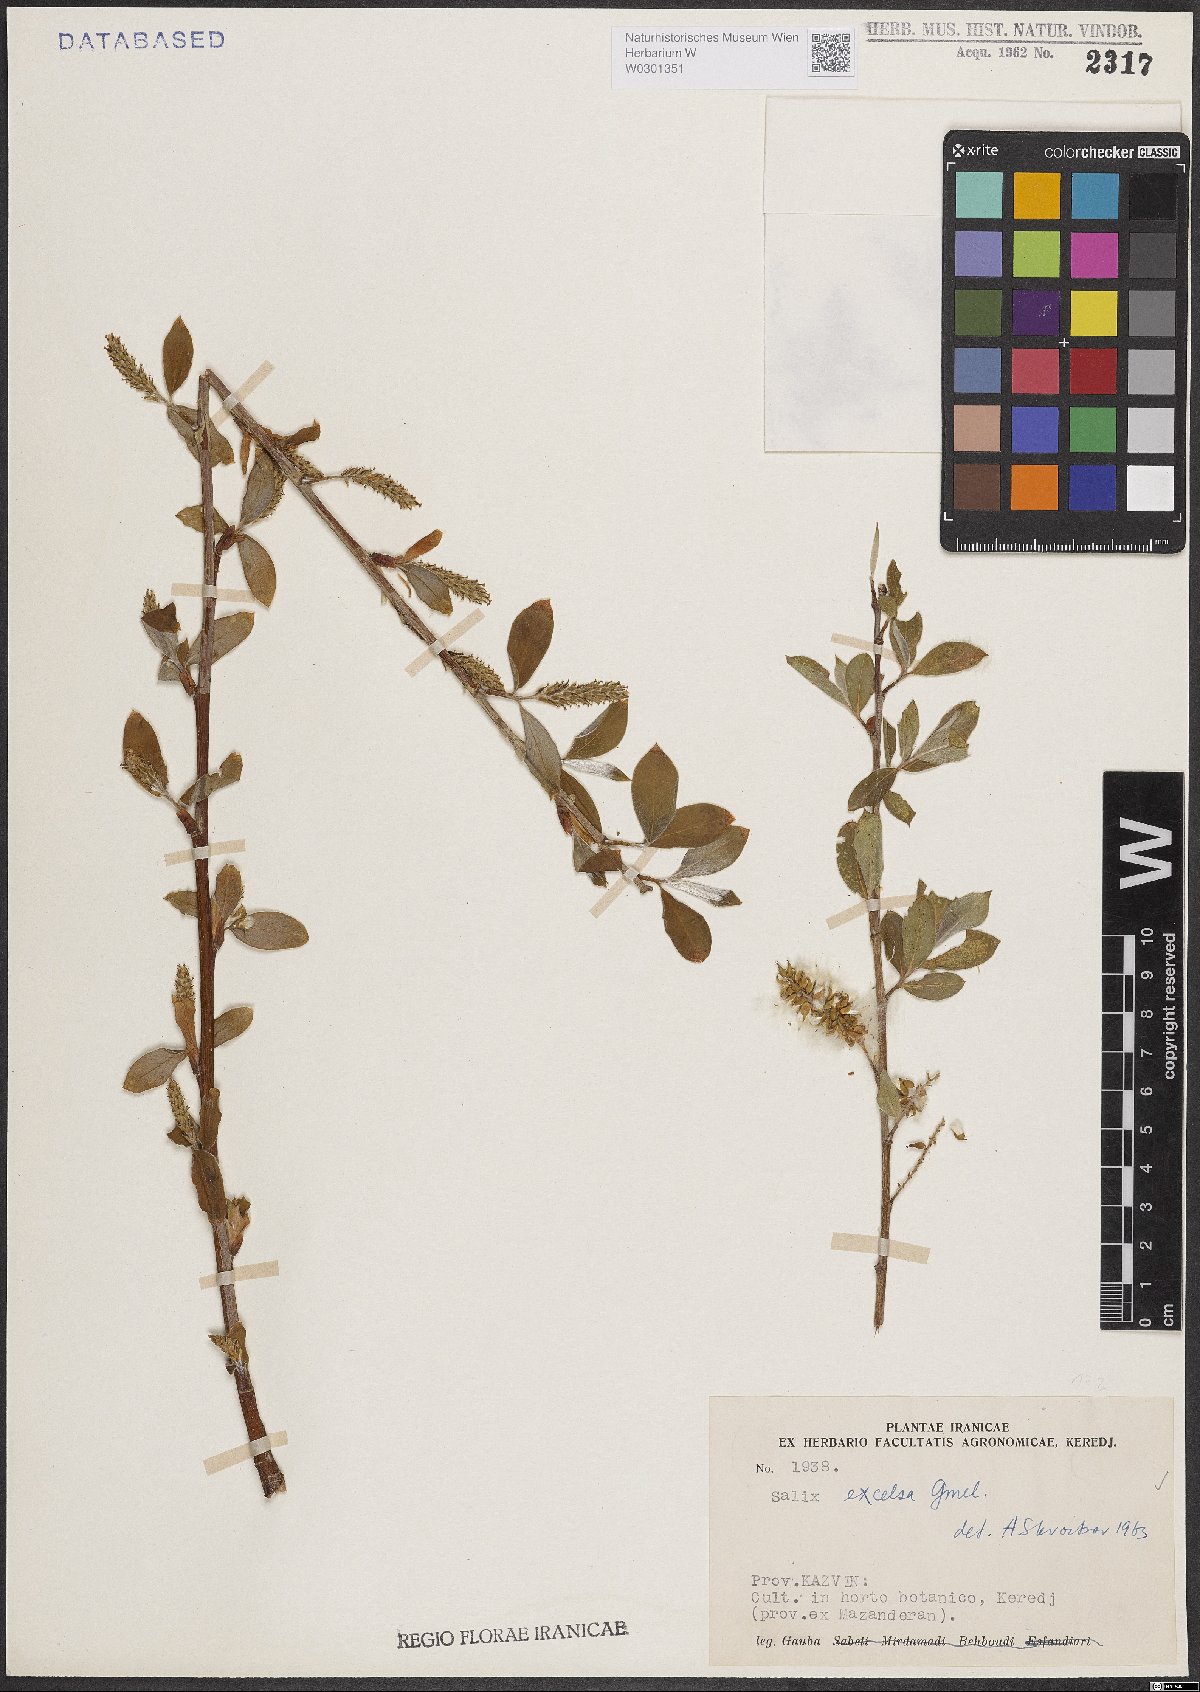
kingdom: Plantae
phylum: Tracheophyta
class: Magnoliopsida
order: Malpighiales
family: Salicaceae
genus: Salix
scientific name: Salix excelsa
